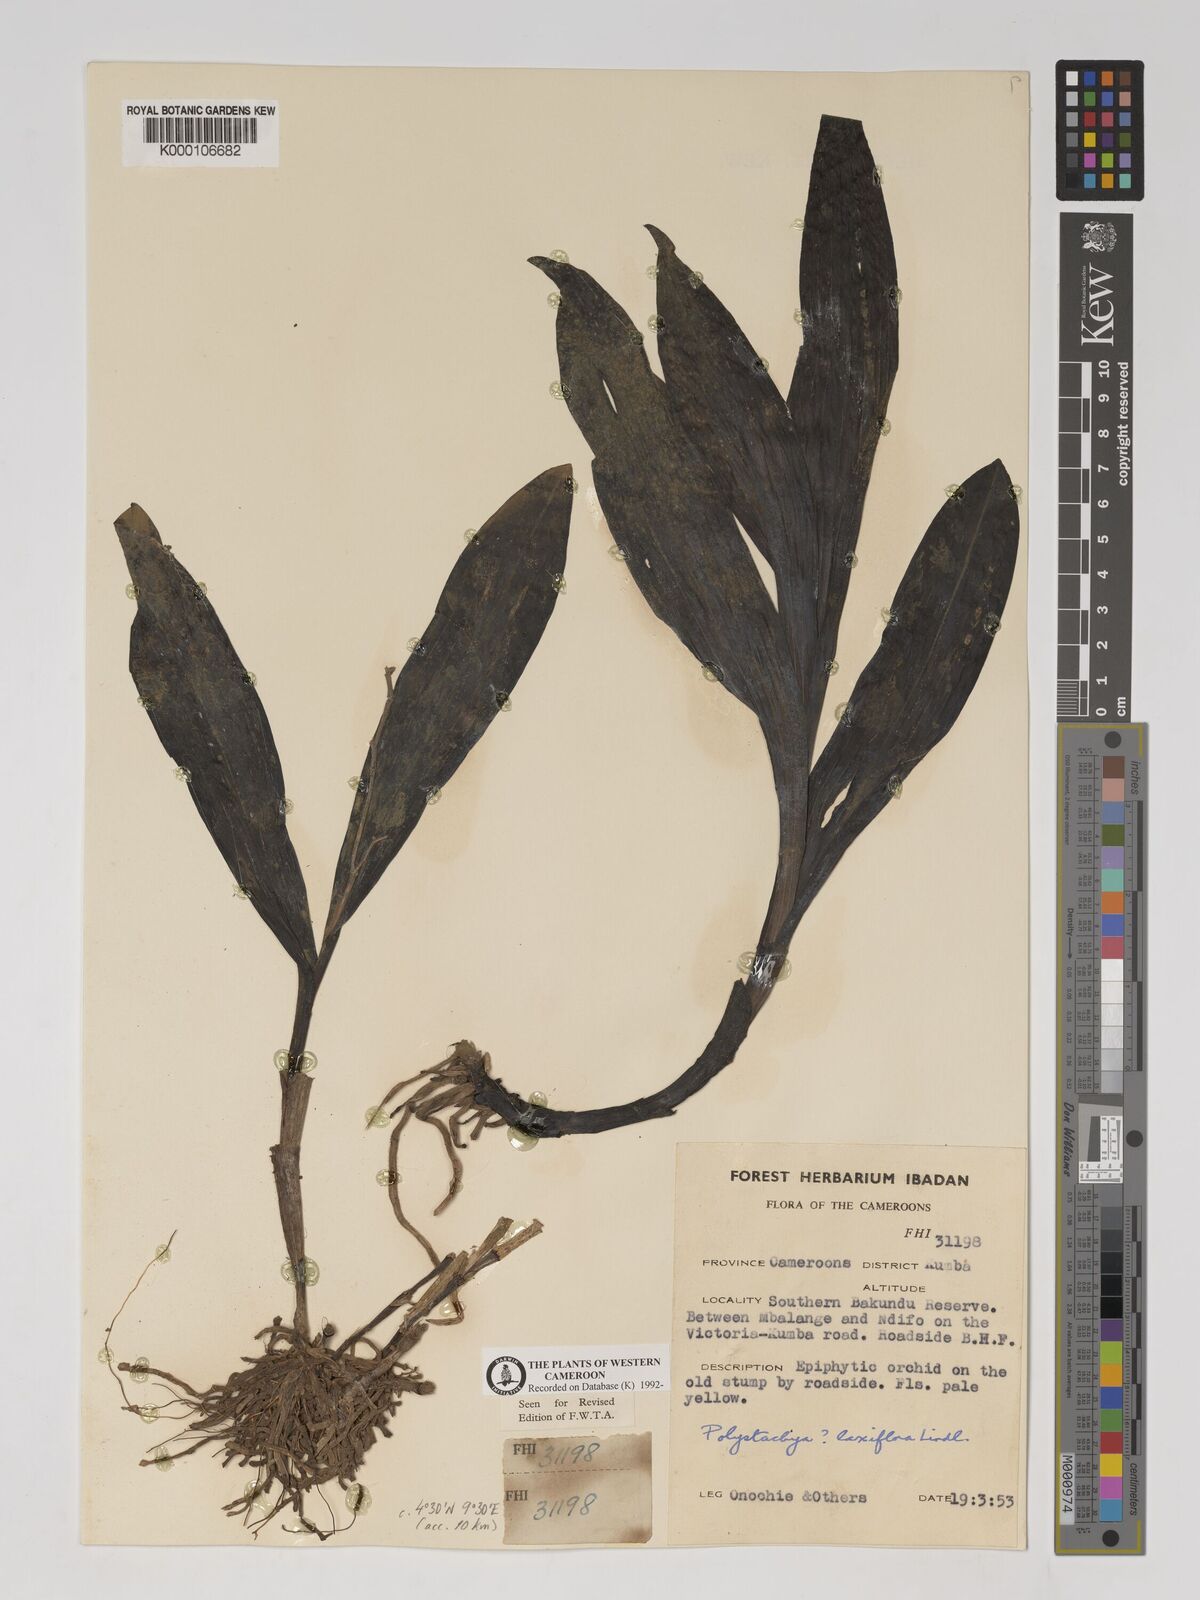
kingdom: Plantae
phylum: Tracheophyta
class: Liliopsida
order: Asparagales
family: Orchidaceae
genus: Polystachya
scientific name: Polystachya laxiflora
